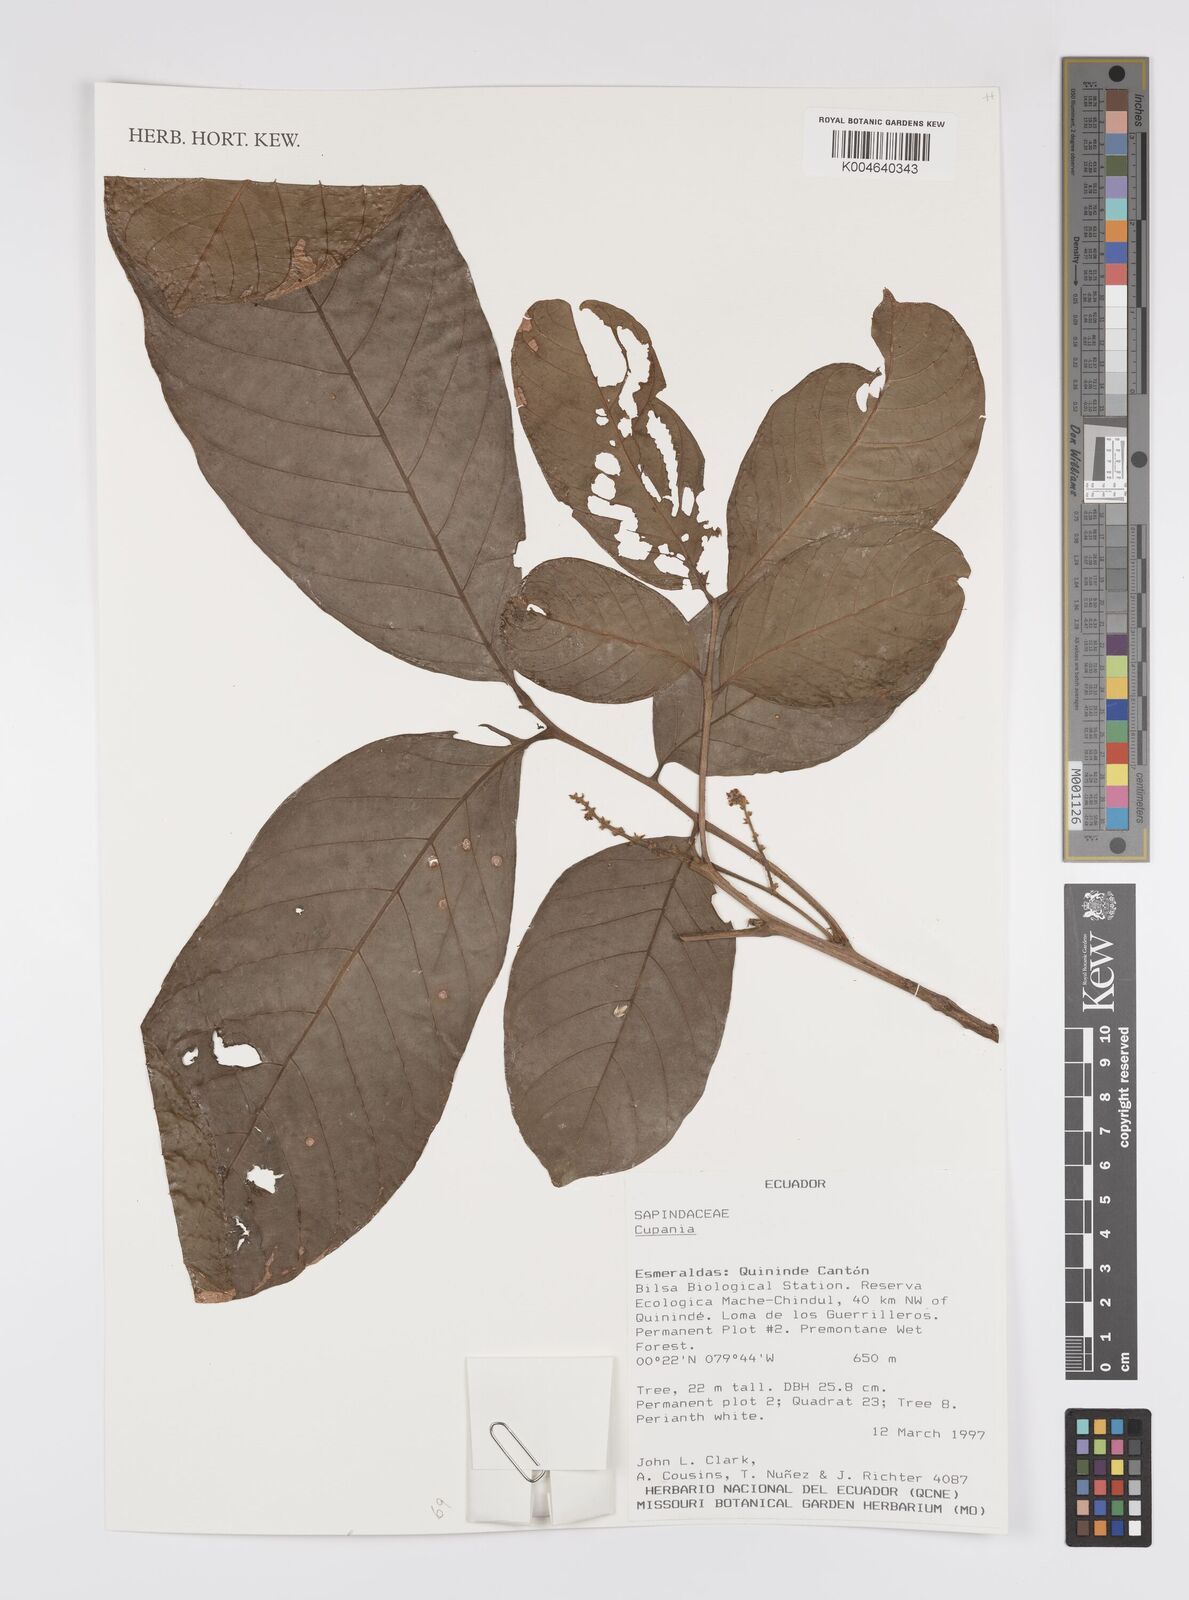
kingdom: Plantae
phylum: Tracheophyta
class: Magnoliopsida
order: Sapindales
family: Sapindaceae
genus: Cupania
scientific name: Cupania
